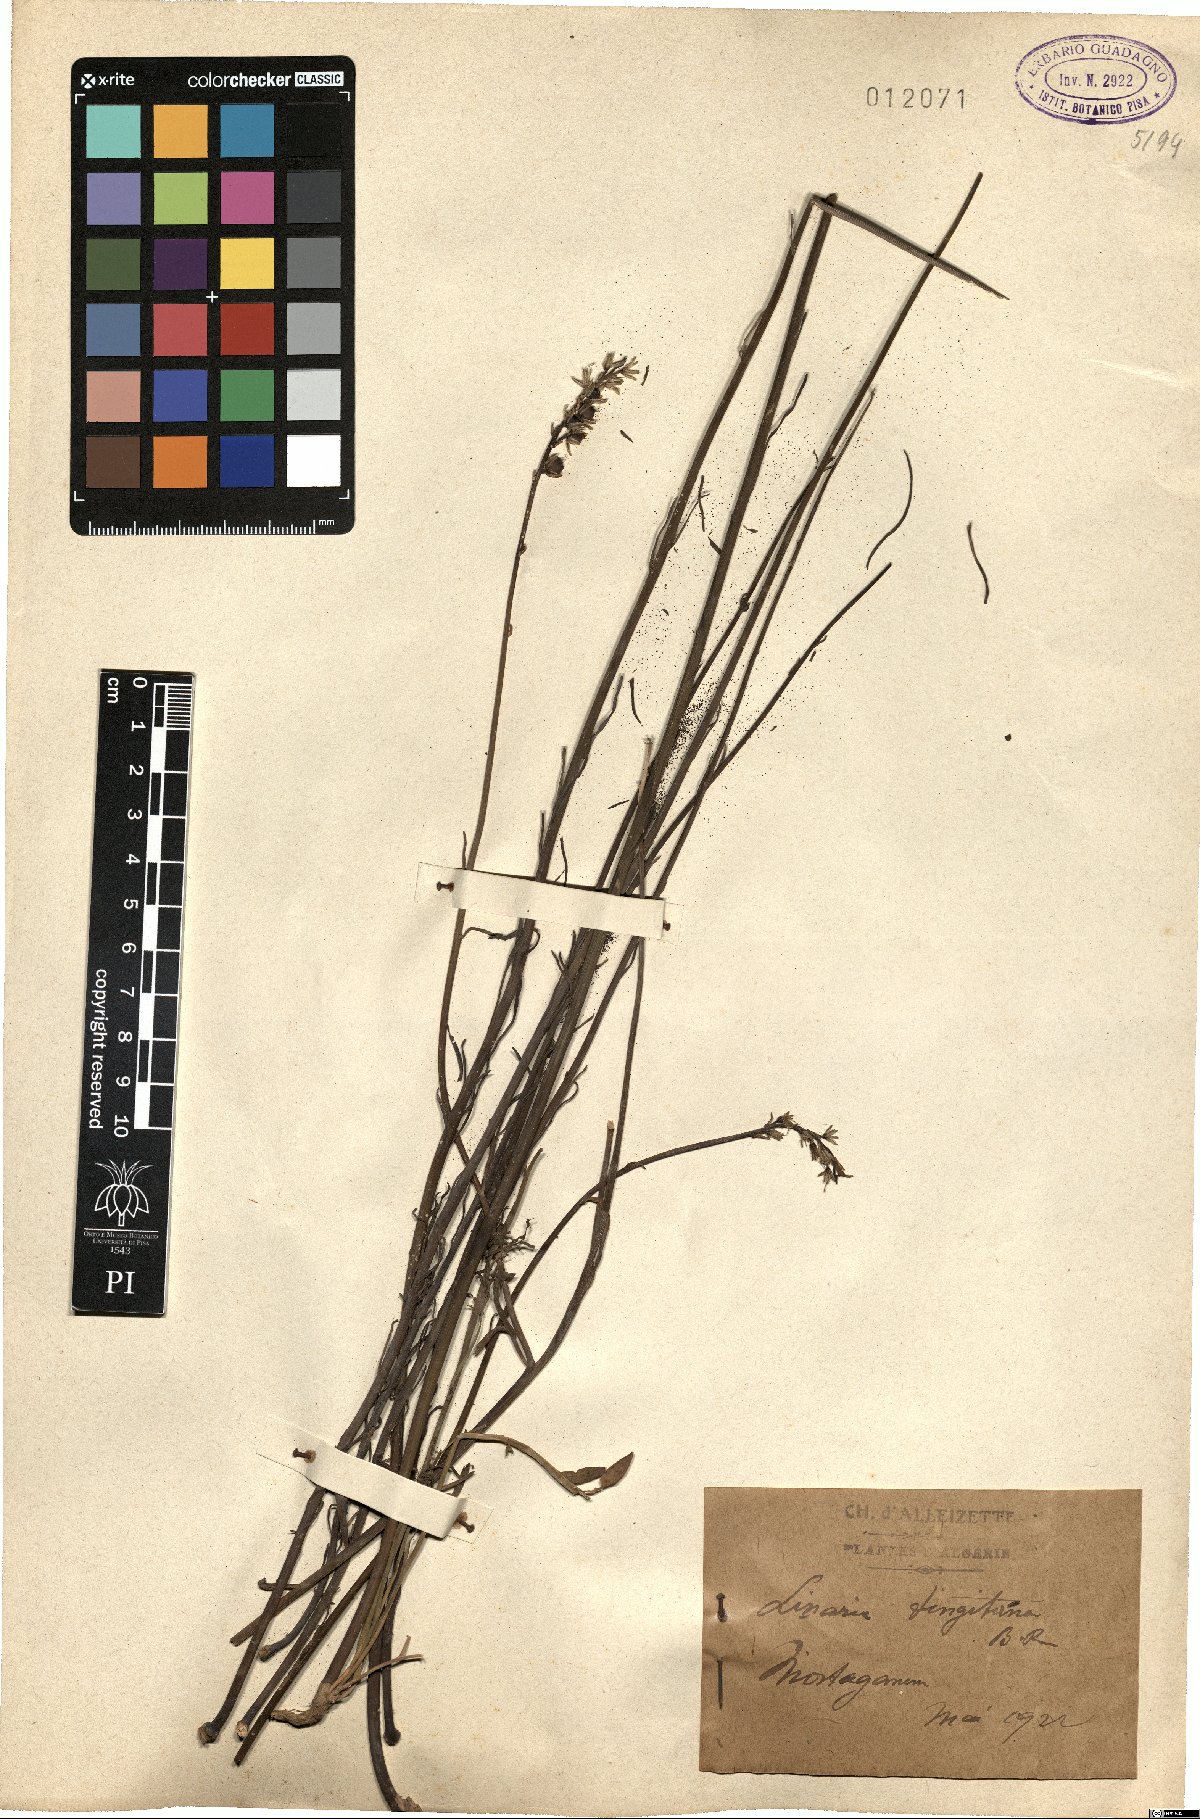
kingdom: Plantae
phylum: Tracheophyta
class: Magnoliopsida
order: Lamiales
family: Plantaginaceae
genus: Linaria
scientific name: Linaria tingitana
